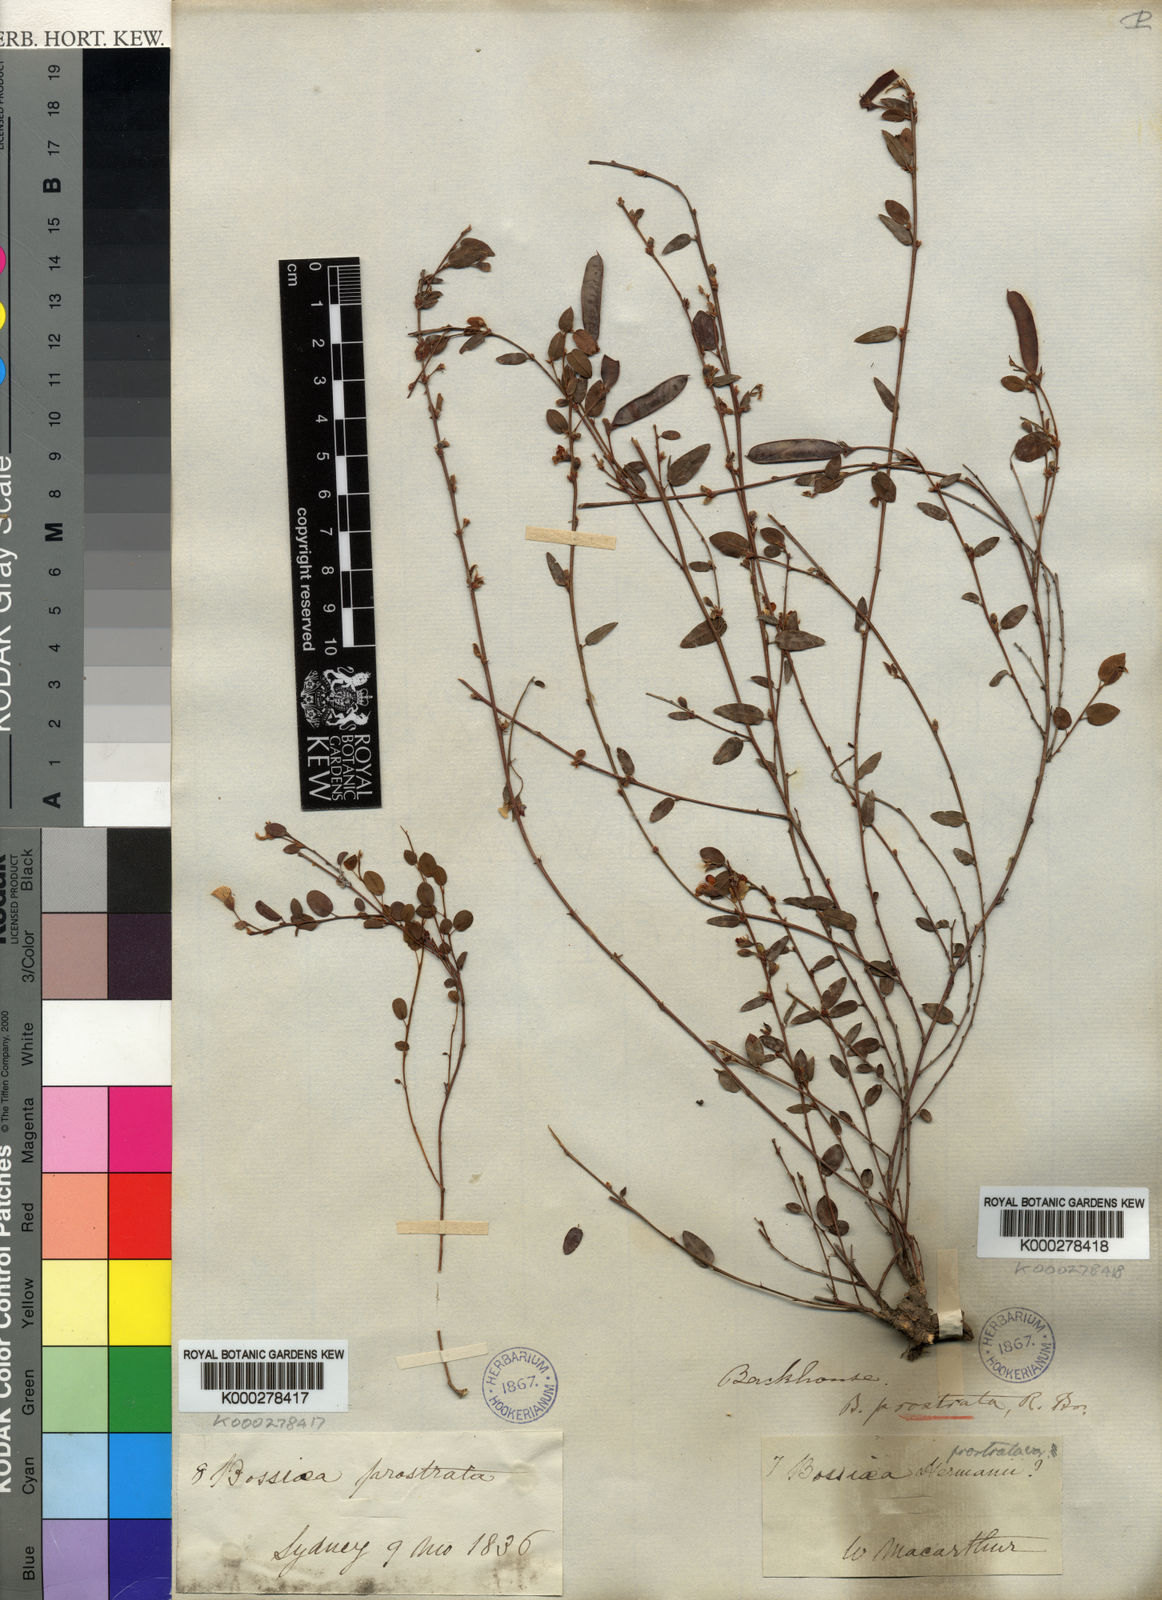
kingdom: Plantae
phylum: Tracheophyta
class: Magnoliopsida
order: Fabales
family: Fabaceae
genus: Bossiaea
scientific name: Bossiaea prostrata
